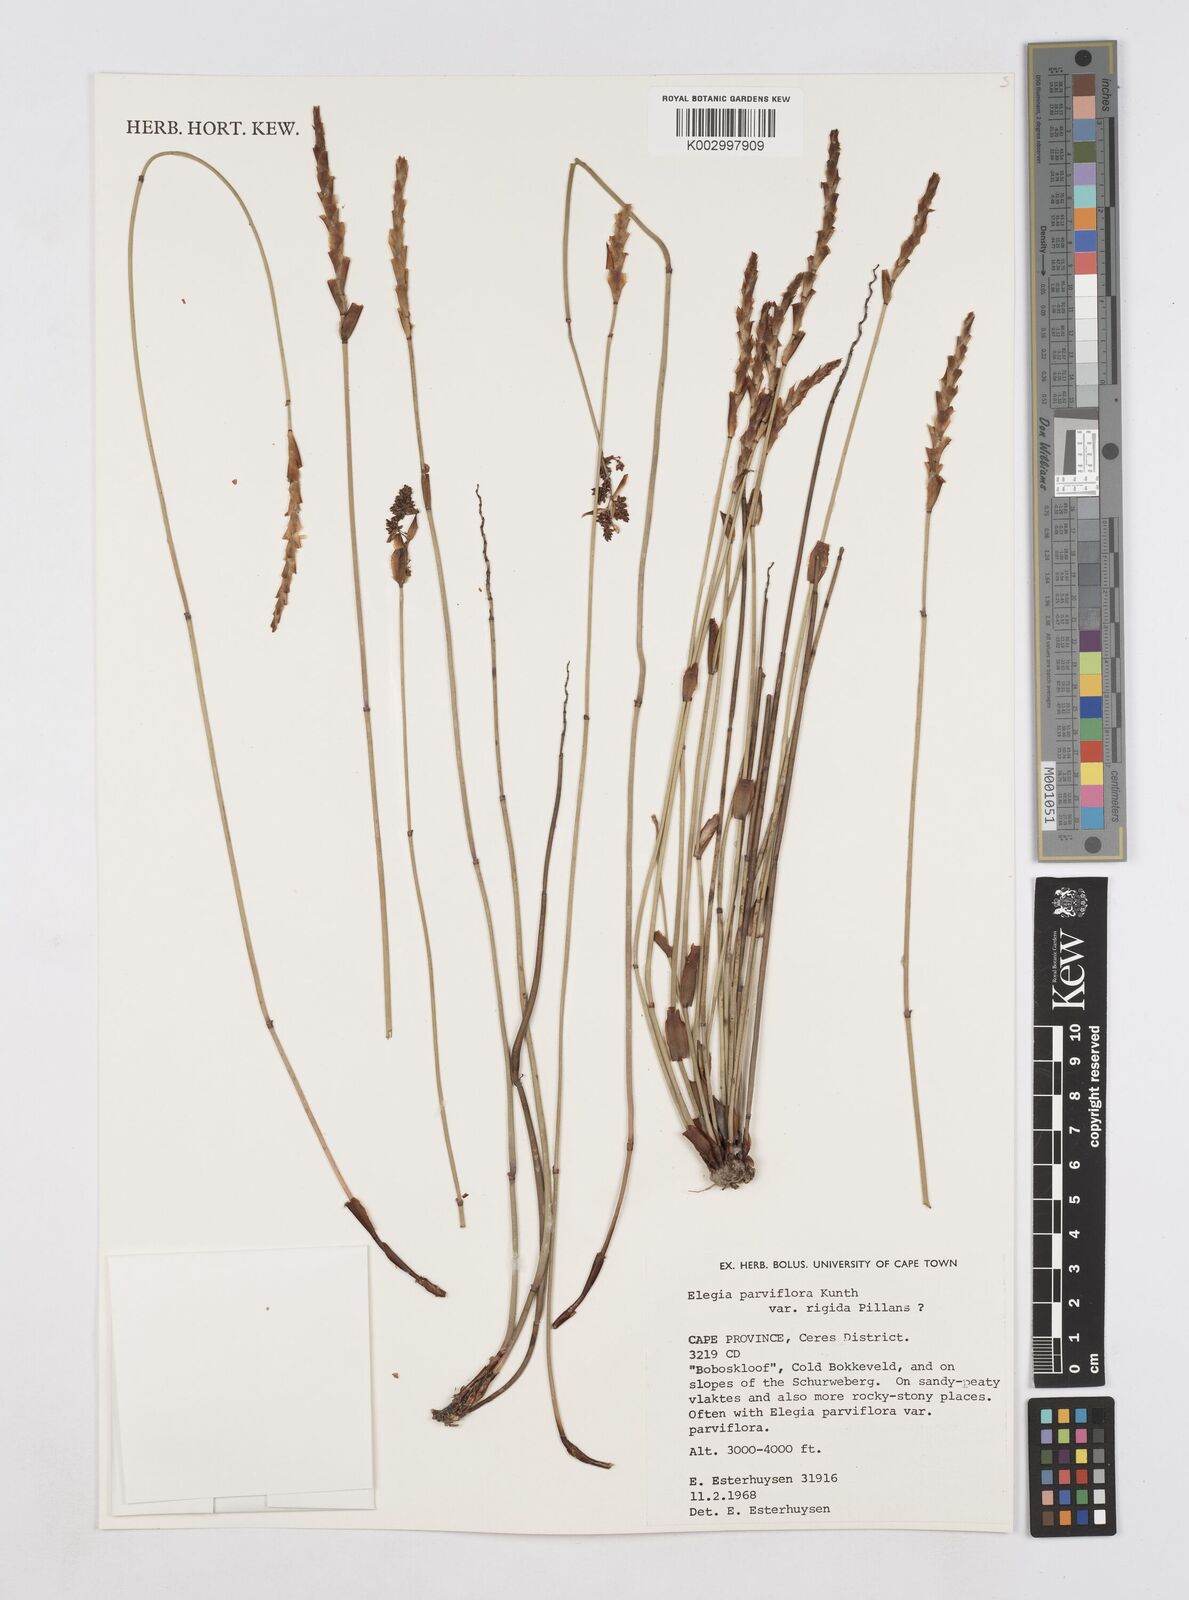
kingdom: Plantae
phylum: Tracheophyta
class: Liliopsida
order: Poales
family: Restionaceae
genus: Elegia
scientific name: Elegia rigida
